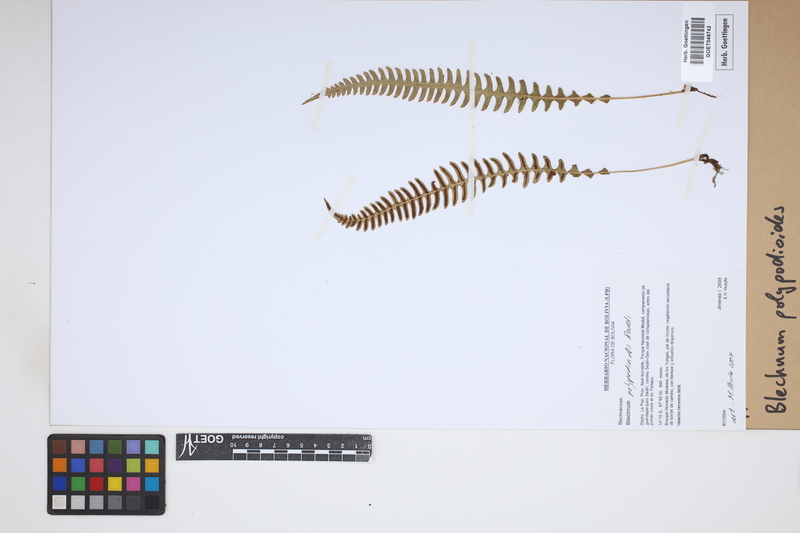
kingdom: Plantae
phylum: Tracheophyta
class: Polypodiopsida
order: Polypodiales
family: Blechnaceae
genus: Blechnum
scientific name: Blechnum polypodioides
